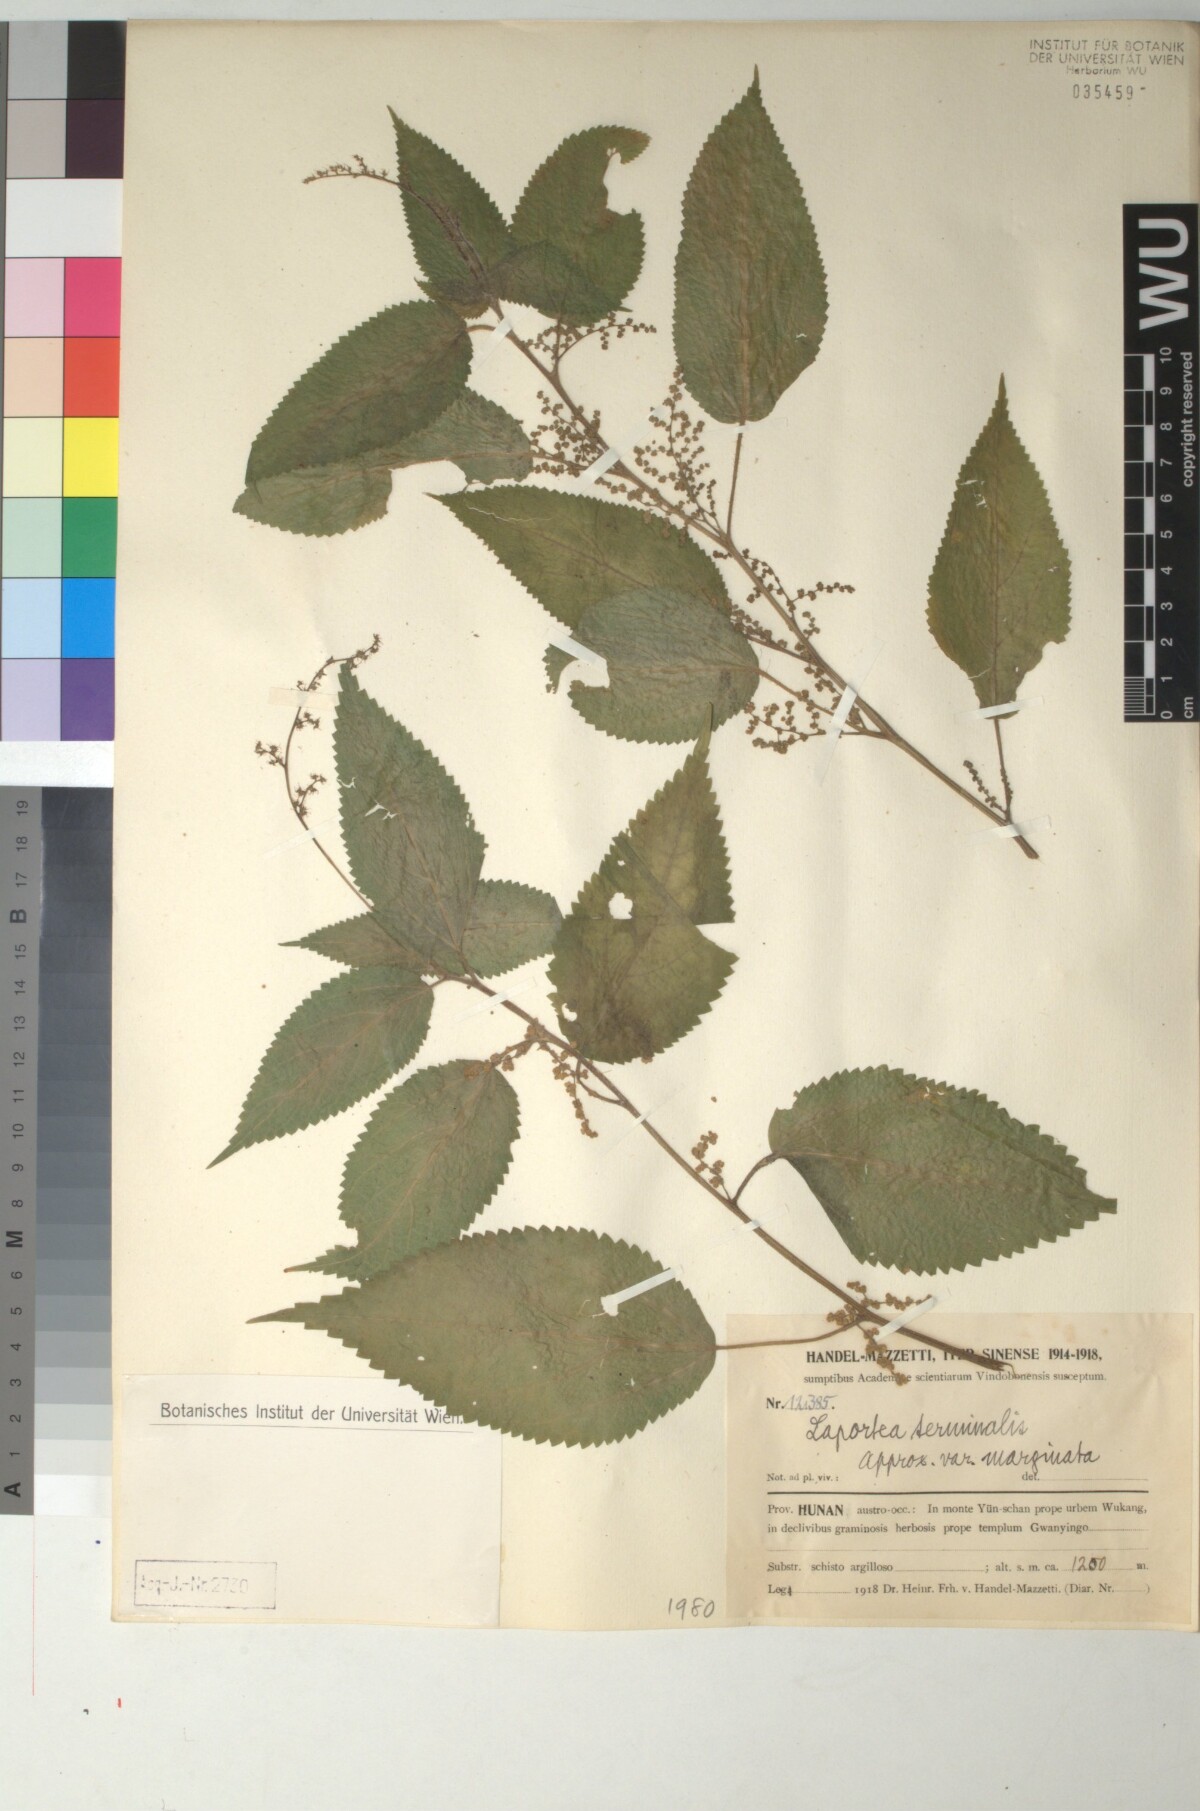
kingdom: Plantae
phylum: Tracheophyta
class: Magnoliopsida
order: Rosales
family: Urticaceae
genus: Laportea
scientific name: Laportea bulbifera
